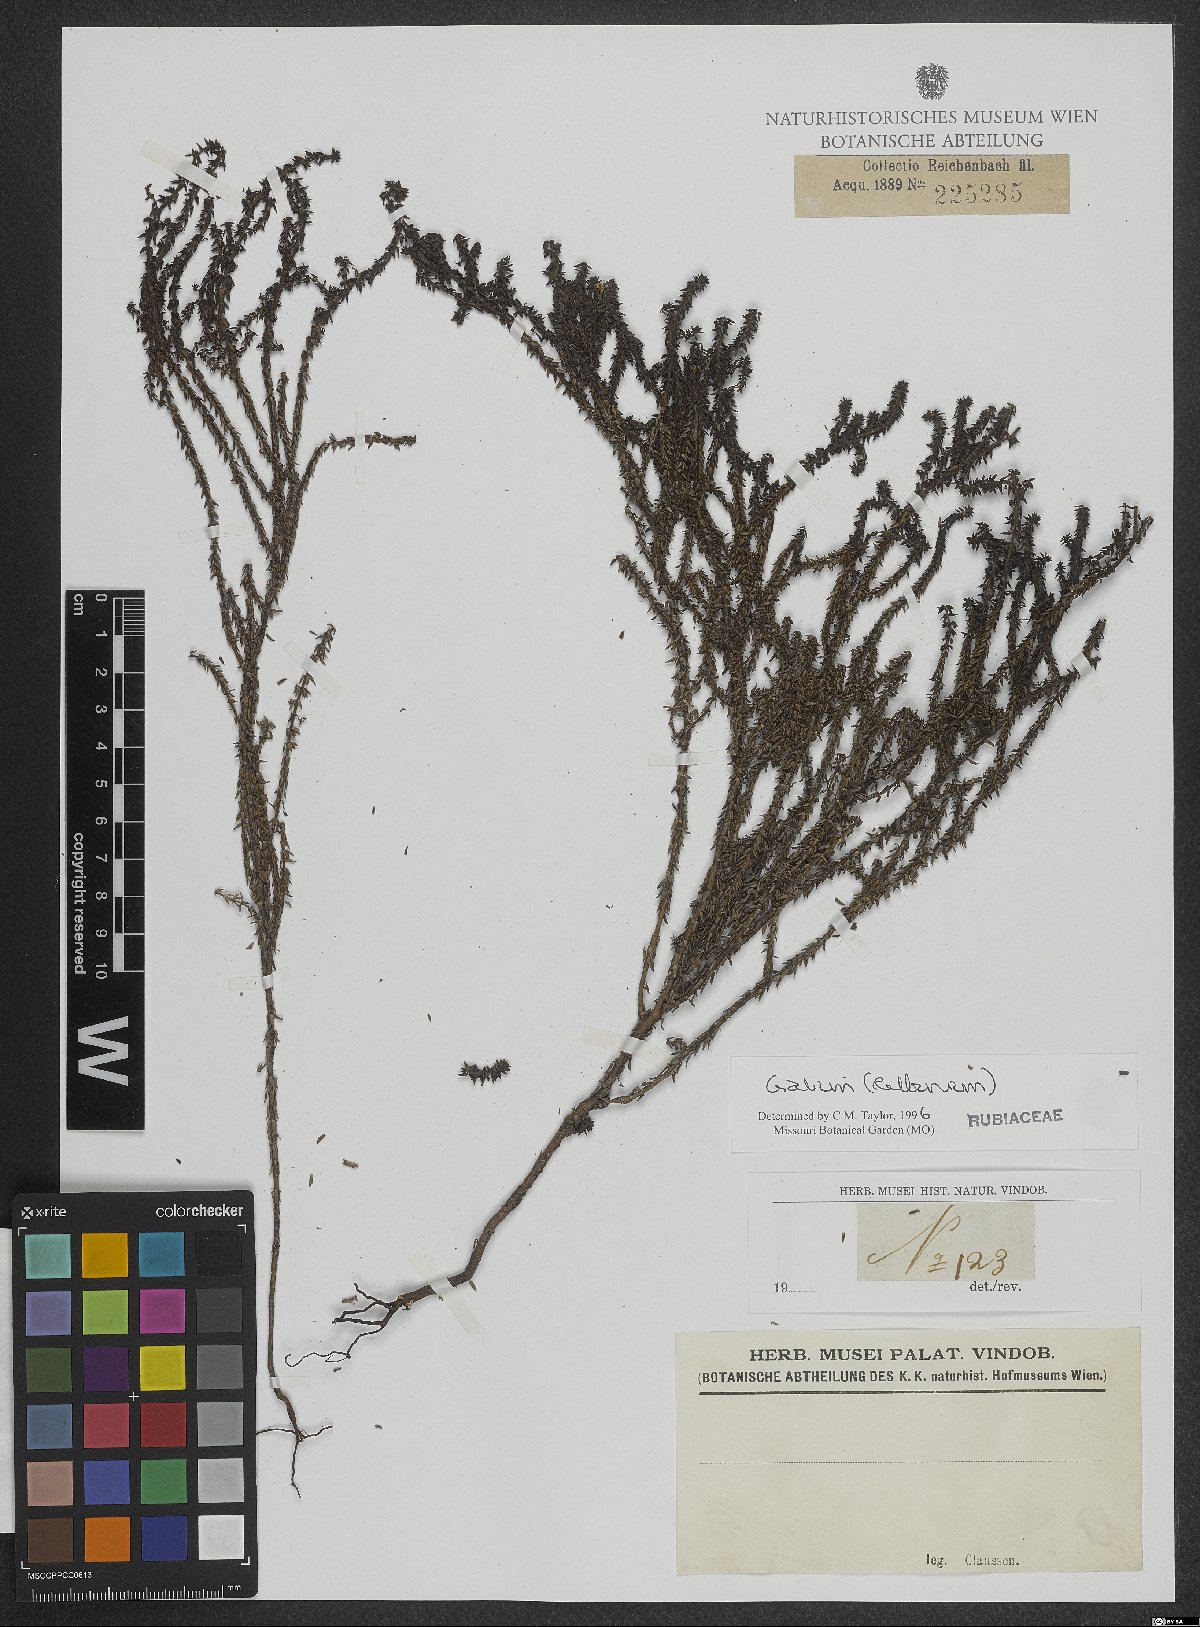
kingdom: Plantae
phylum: Tracheophyta
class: Magnoliopsida
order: Gentianales
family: Rubiaceae
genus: Galium
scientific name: Galium
